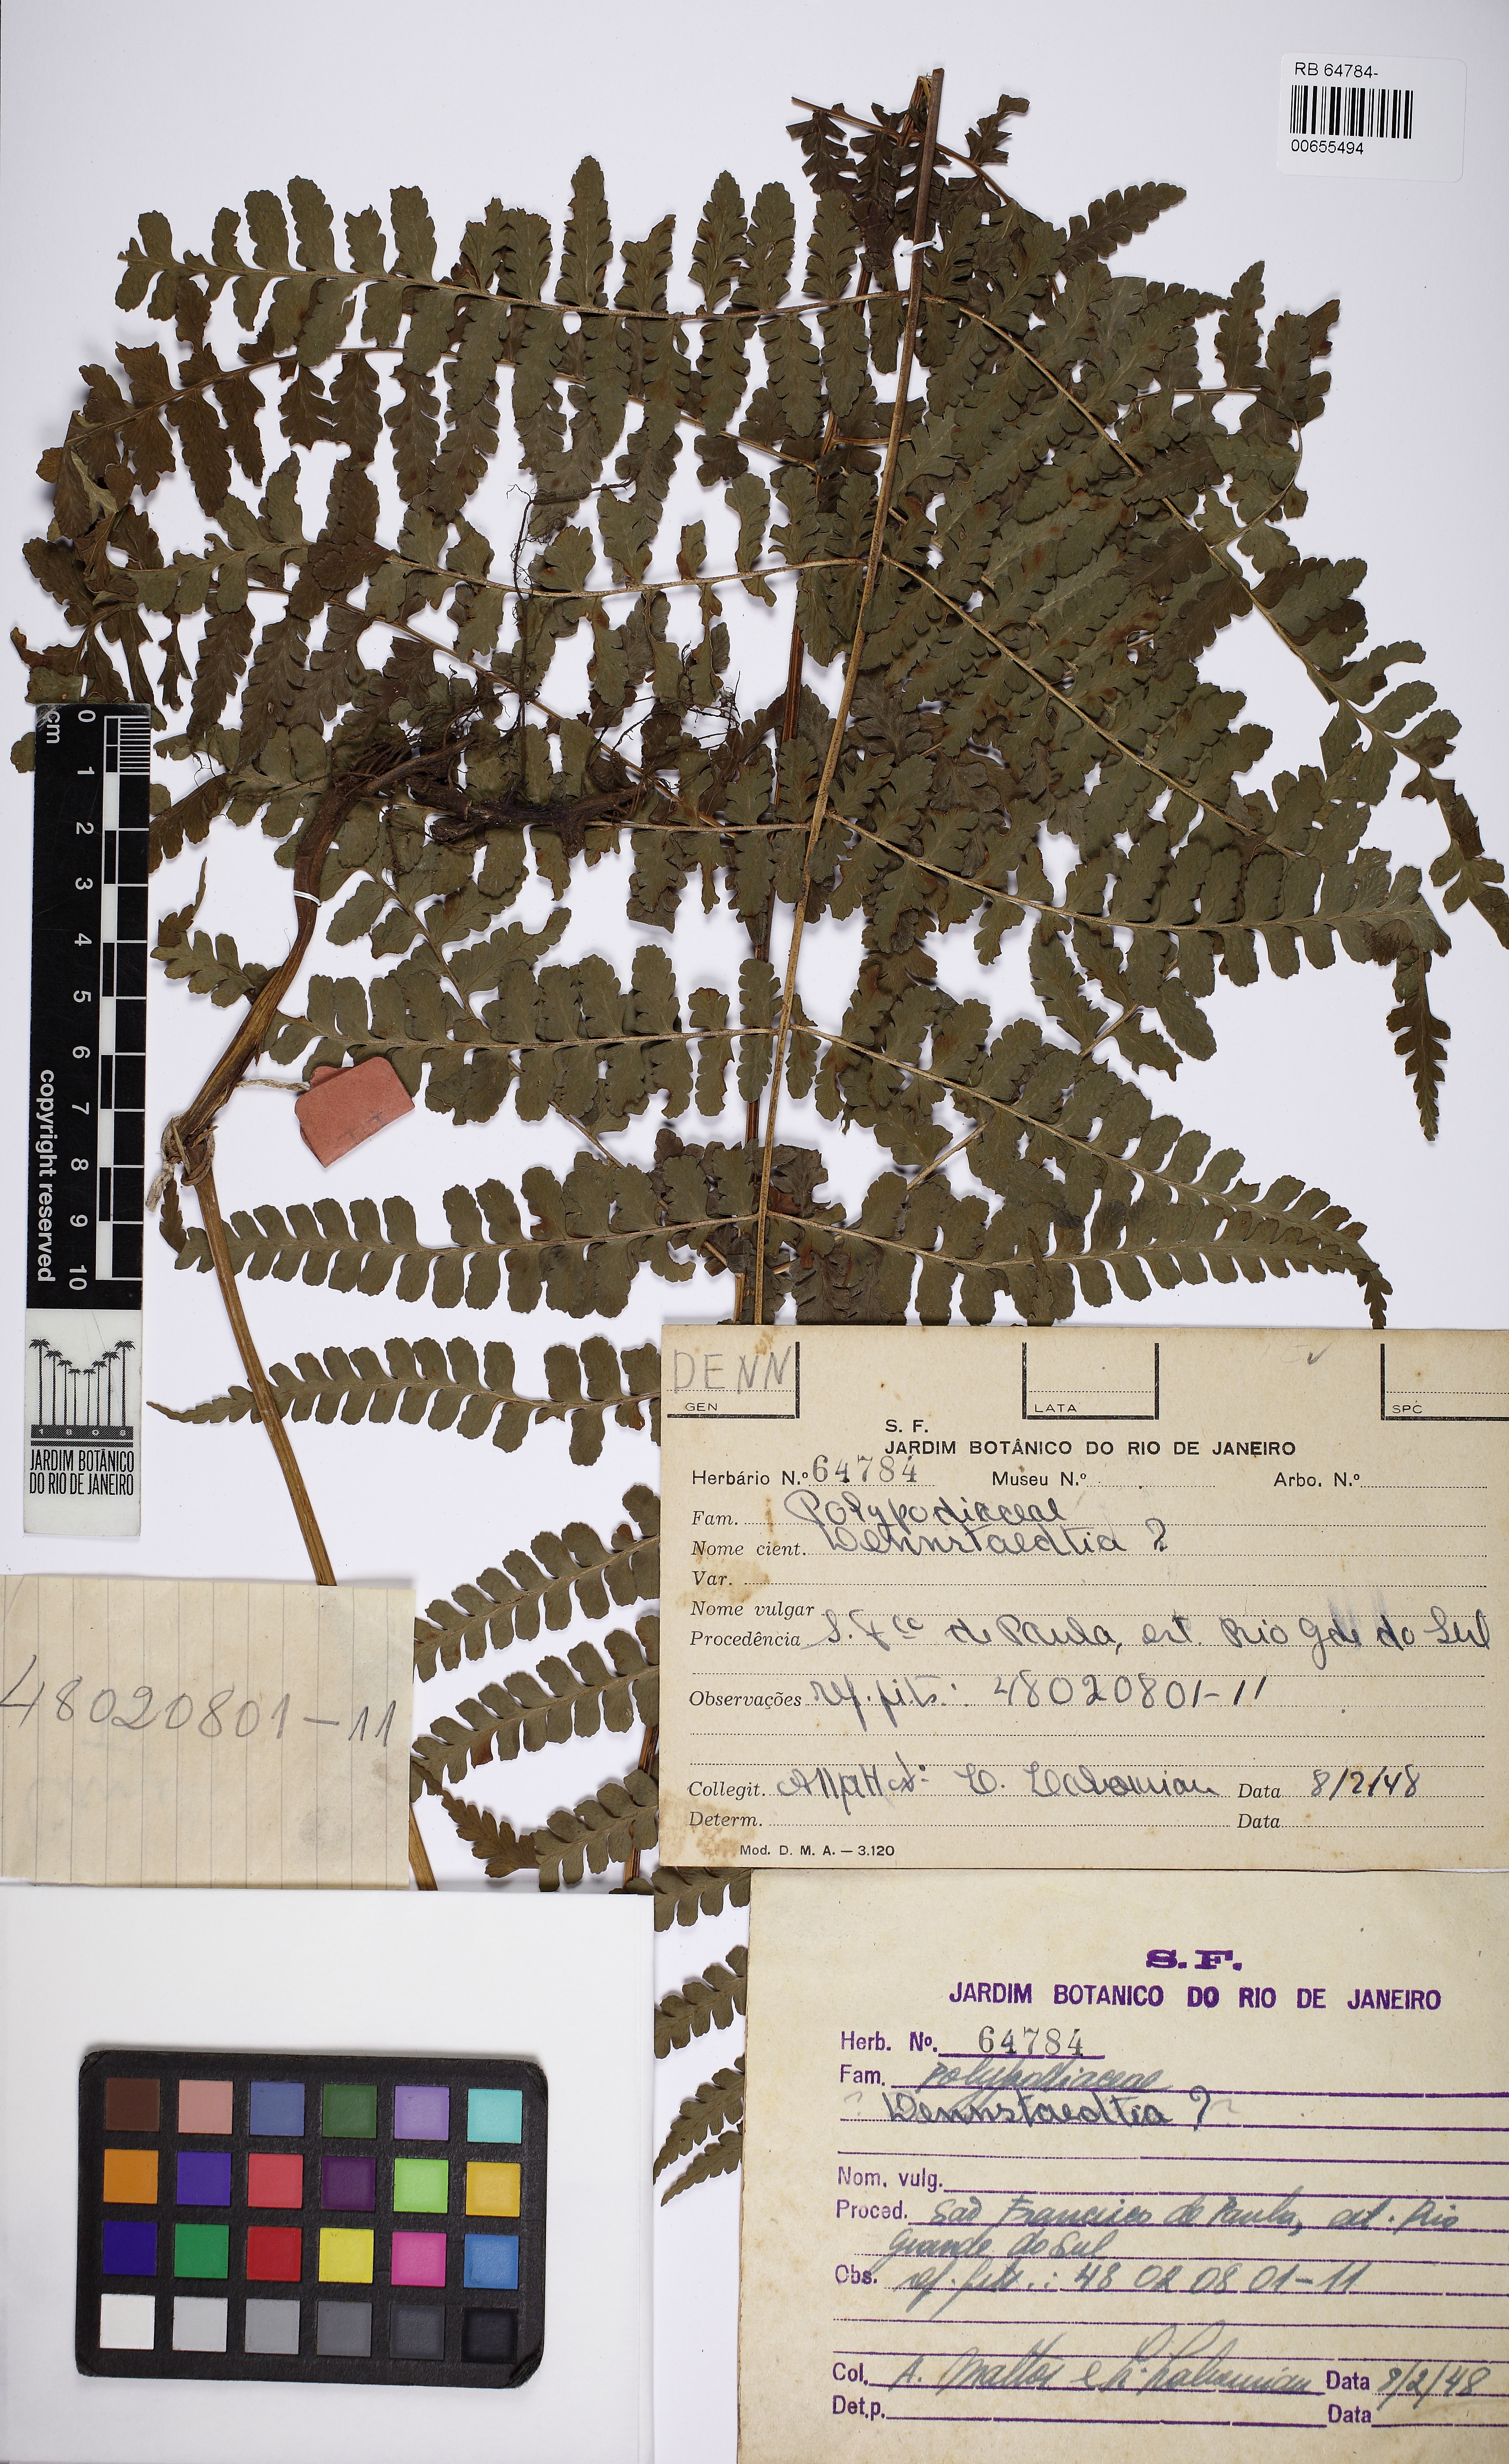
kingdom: Plantae
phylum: Tracheophyta
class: Polypodiopsida
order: Polypodiales
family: Dennstaedtiaceae
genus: Dennstaedtia
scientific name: Dennstaedtia cornuta
